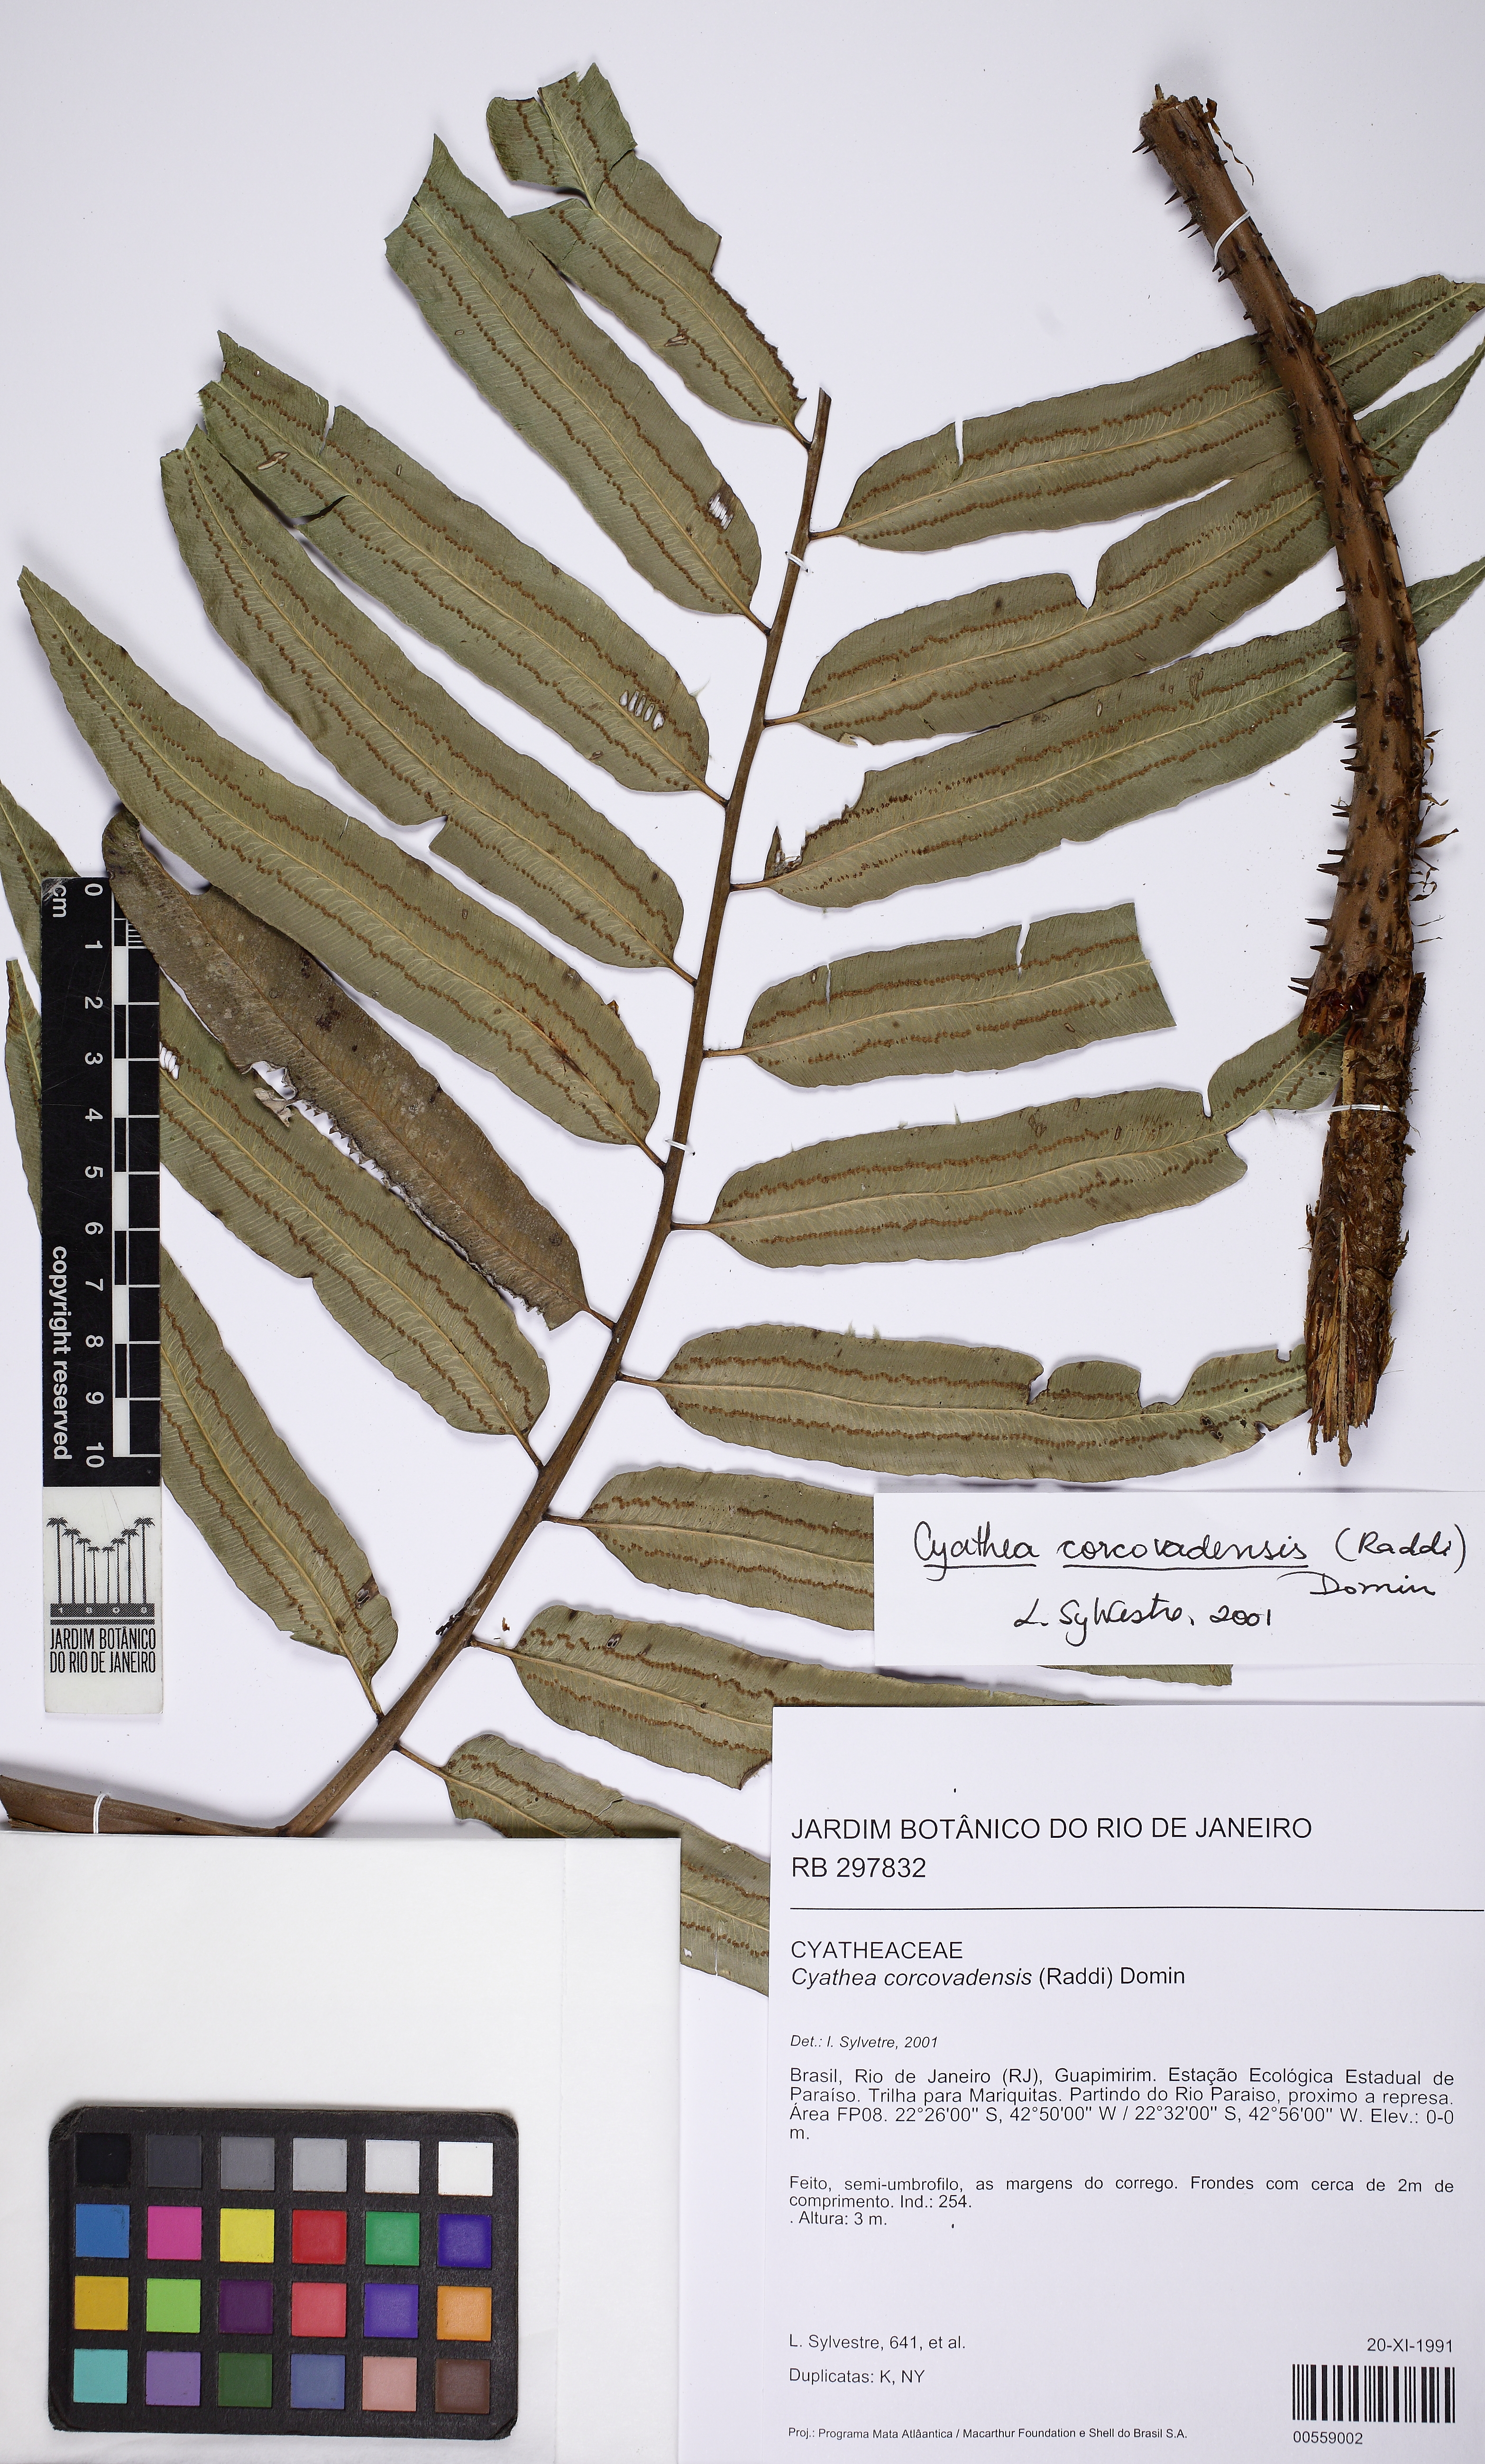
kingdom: Plantae
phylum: Tracheophyta
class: Polypodiopsida
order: Cyatheales
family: Cyatheaceae
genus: Cyathea
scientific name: Cyathea corcovadensis
